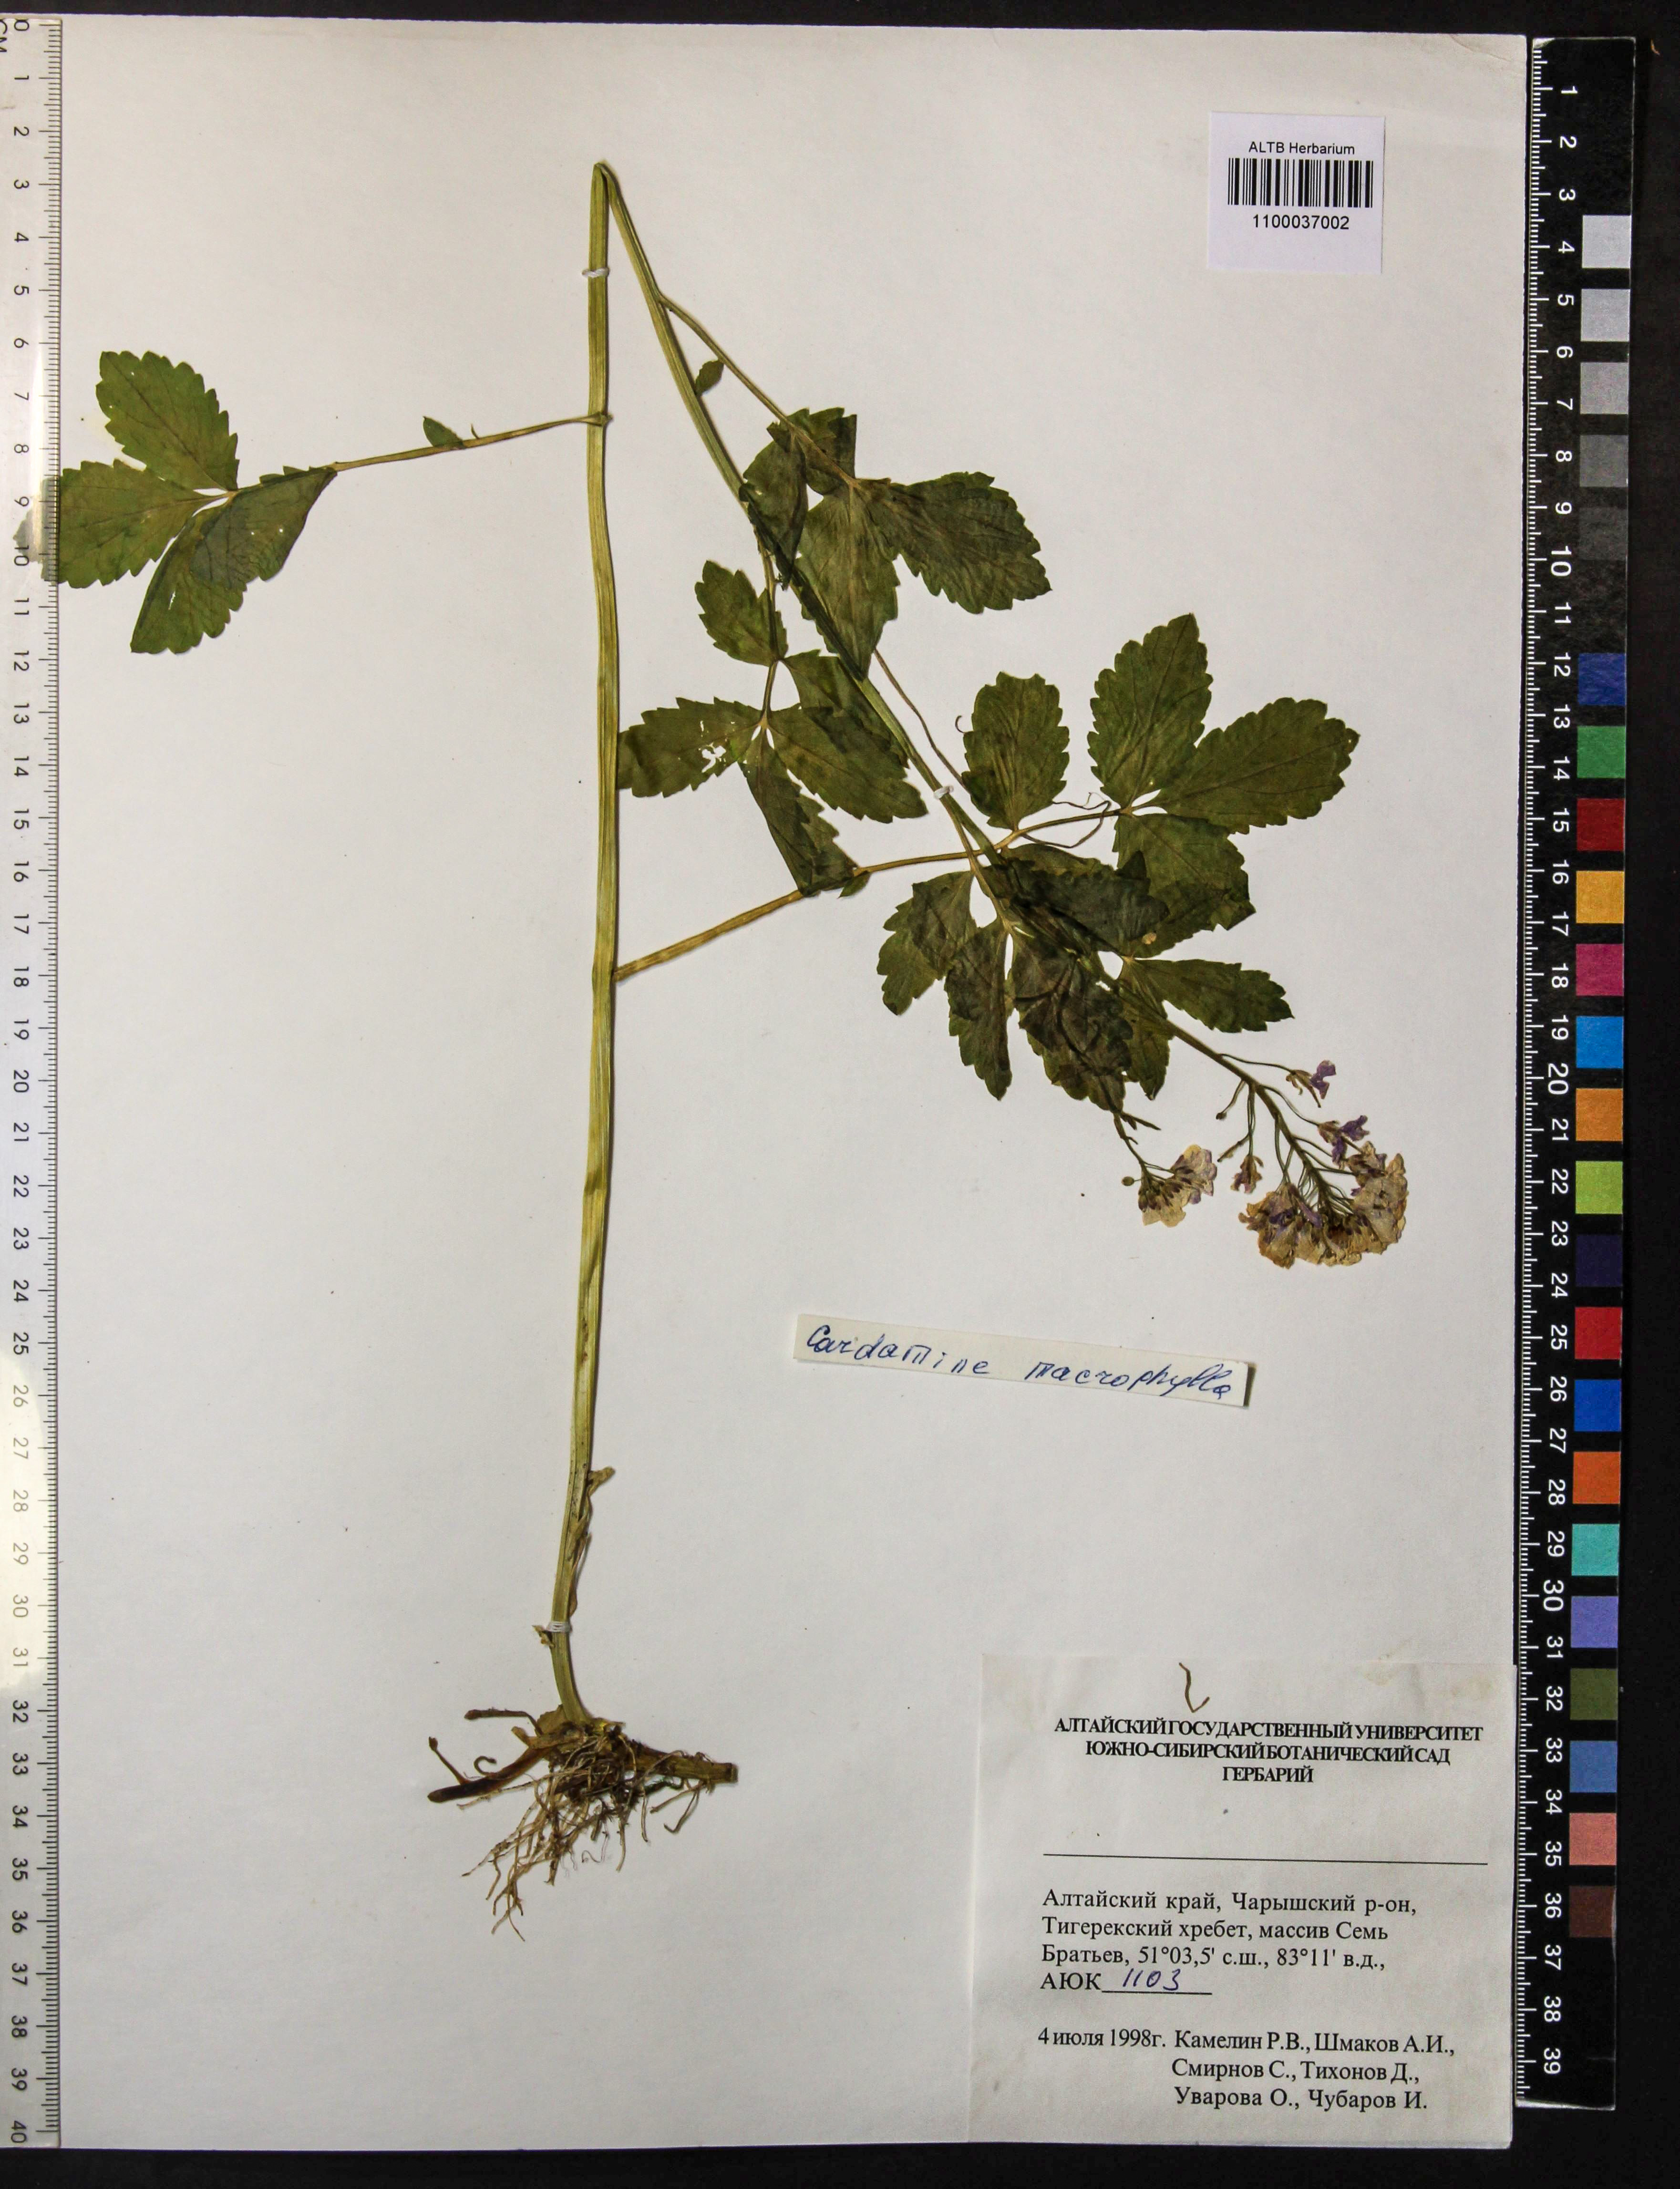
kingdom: Plantae
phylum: Tracheophyta
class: Magnoliopsida
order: Brassicales
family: Brassicaceae
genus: Cardamine
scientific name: Cardamine macrophylla
